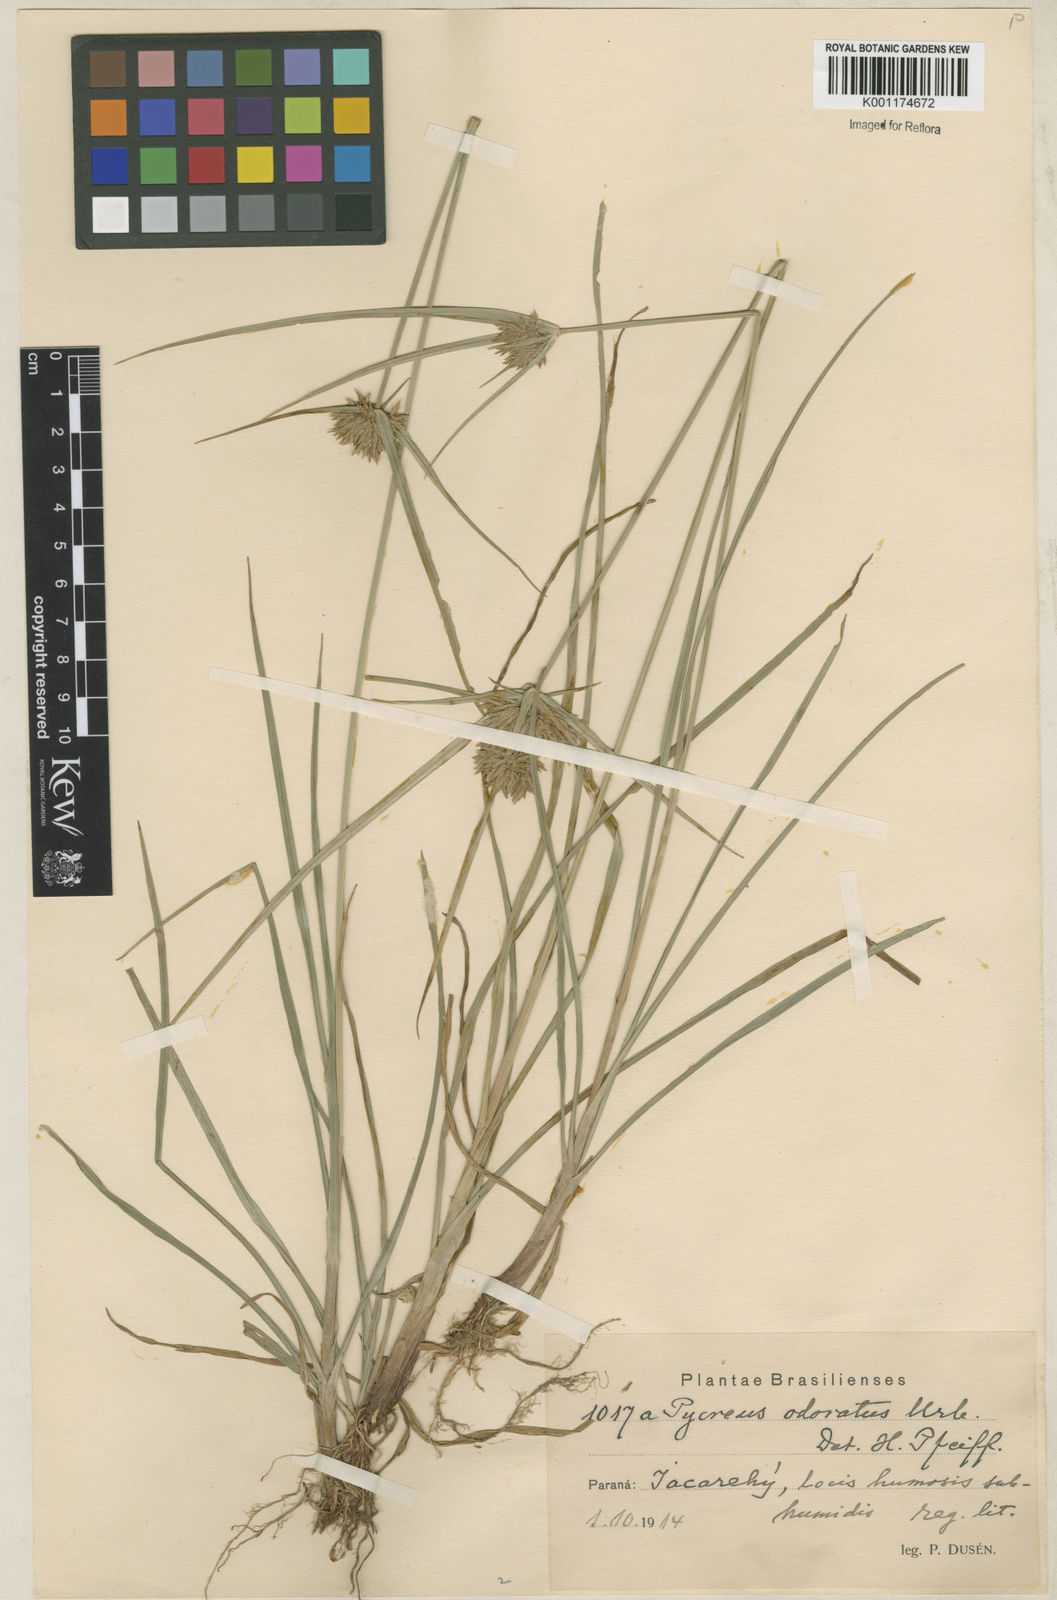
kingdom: Plantae
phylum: Tracheophyta
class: Liliopsida
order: Poales
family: Cyperaceae
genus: Cyperus
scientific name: Cyperus polystachyos
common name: Bunchy flat sedge
